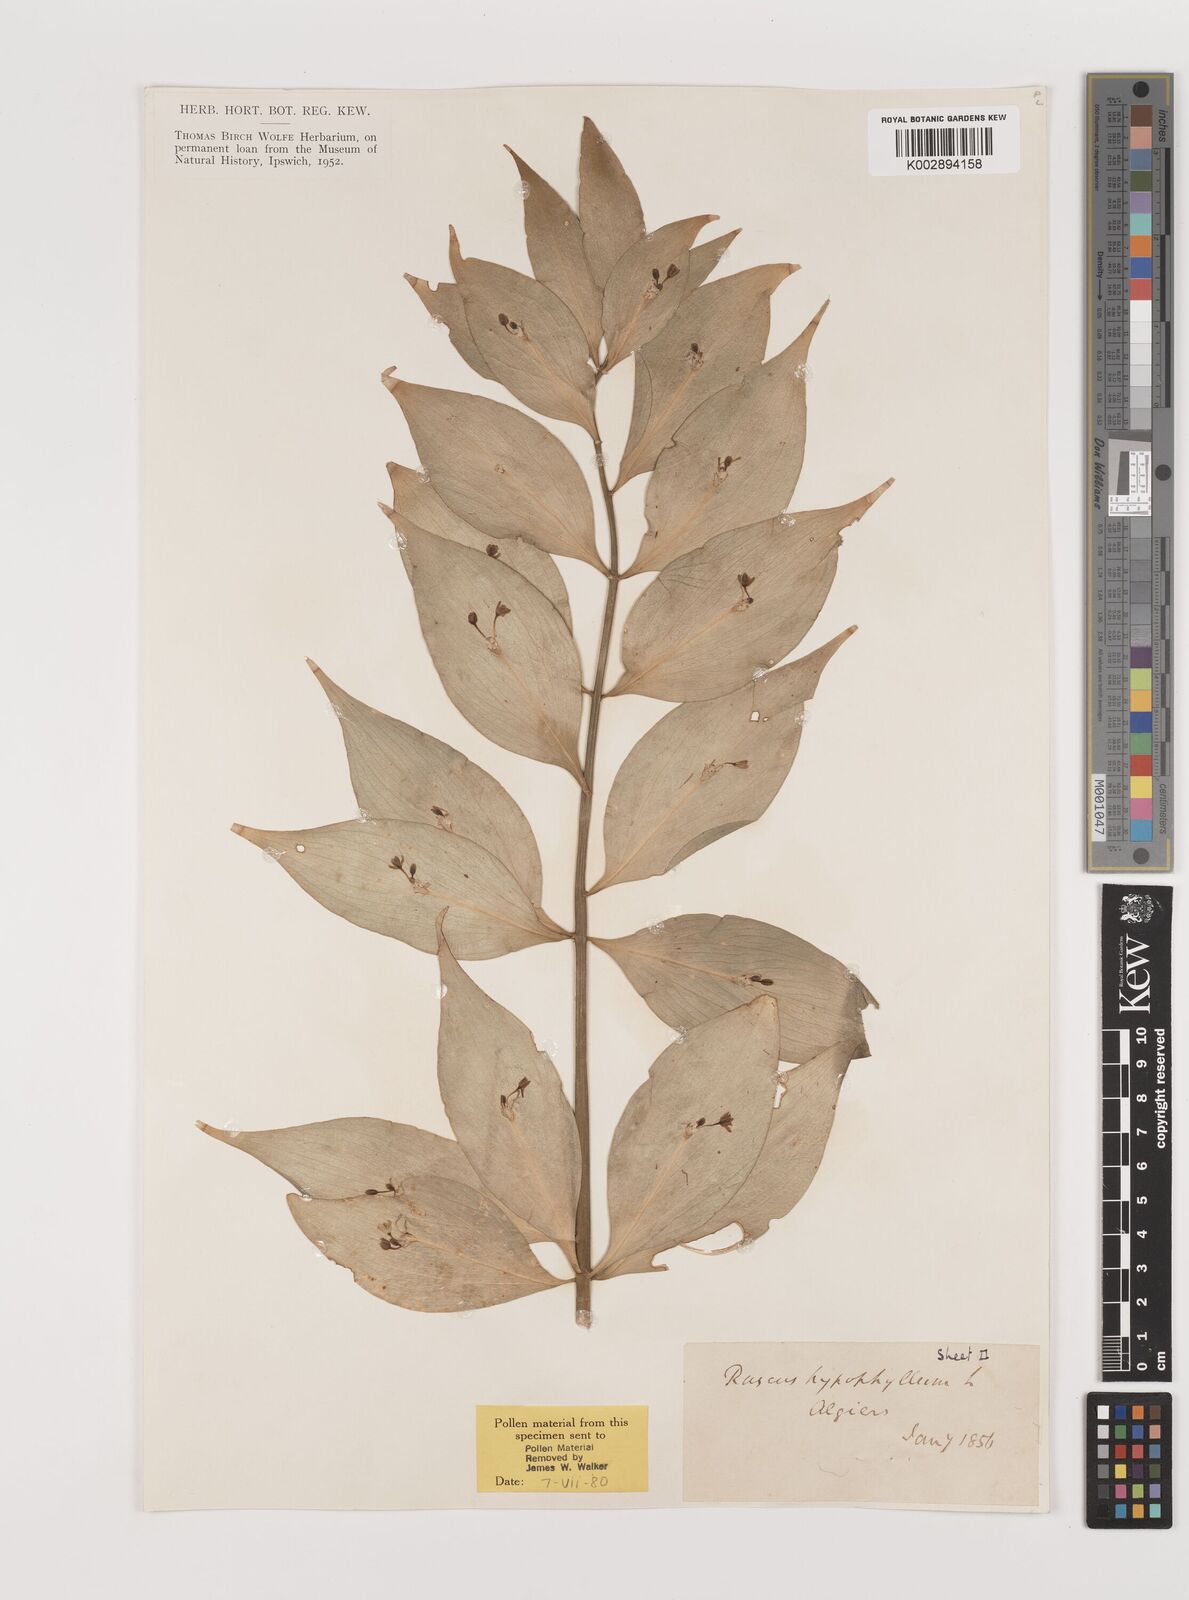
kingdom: Plantae
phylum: Tracheophyta
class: Liliopsida
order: Asparagales
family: Asparagaceae
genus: Ruscus
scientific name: Ruscus hypophyllum
